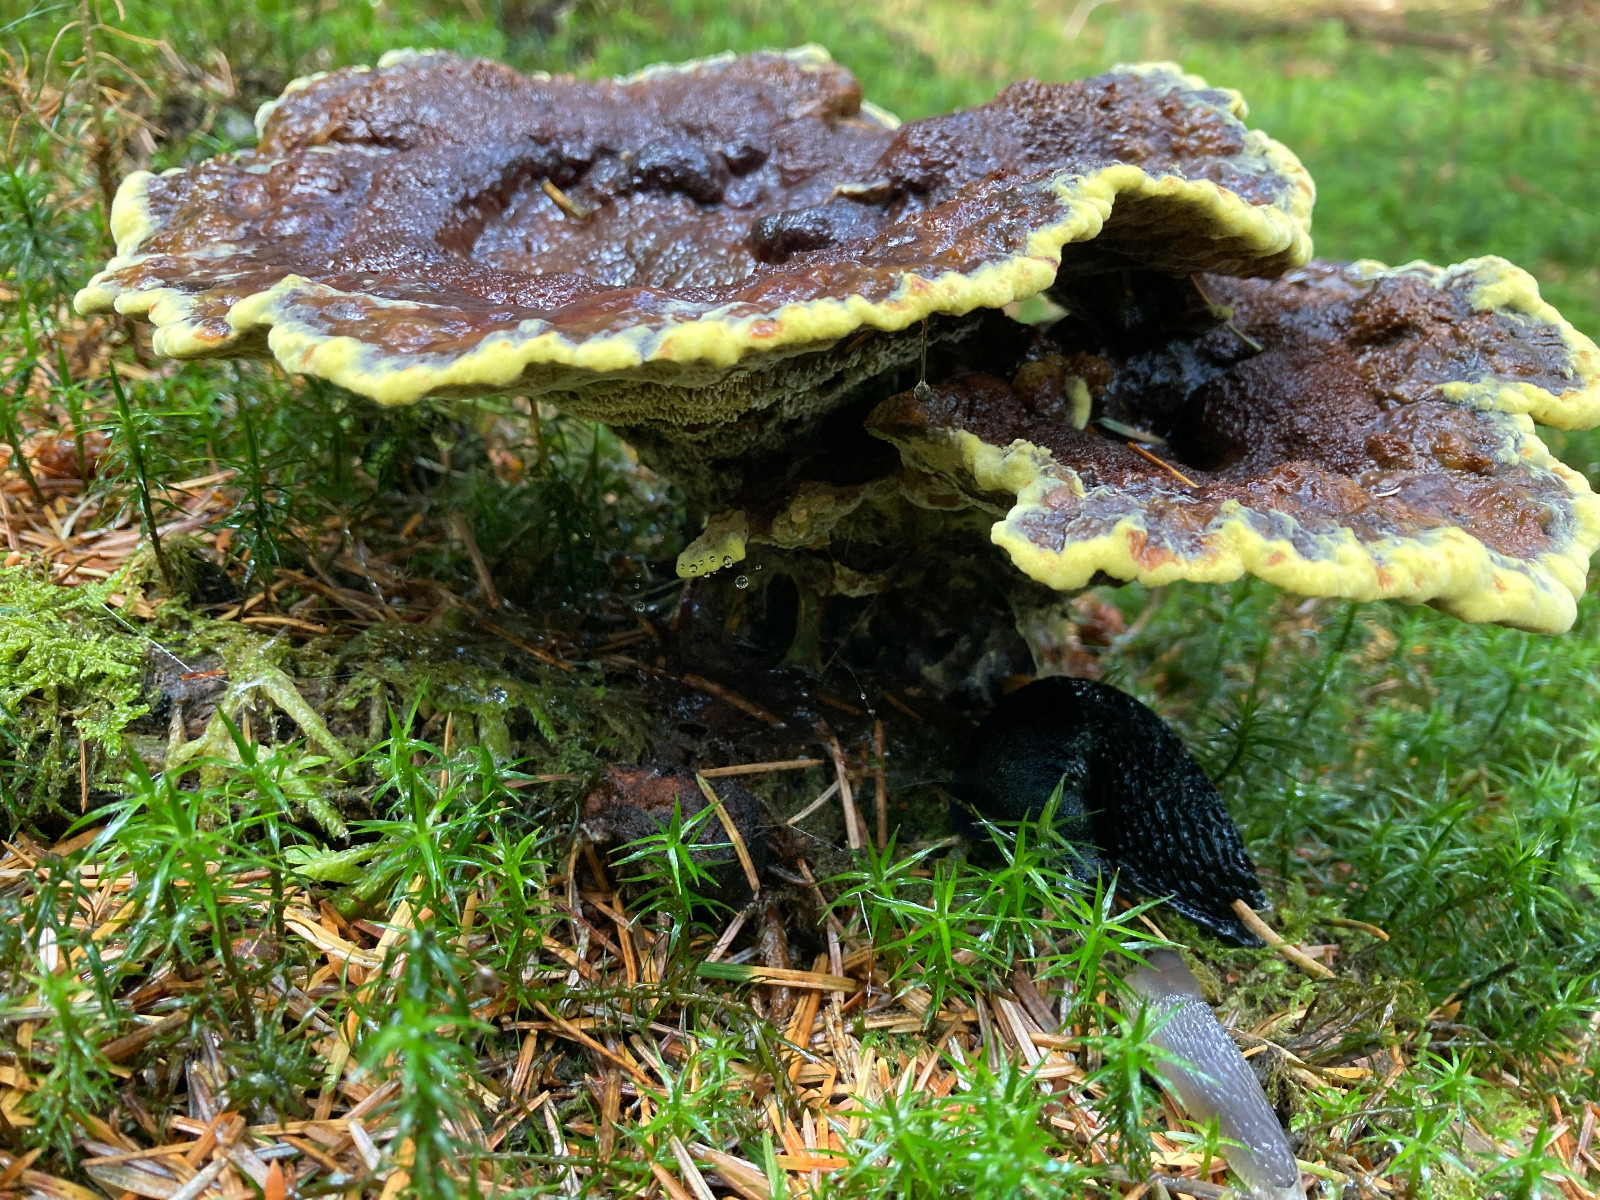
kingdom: Fungi
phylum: Basidiomycota
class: Agaricomycetes
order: Polyporales
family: Laetiporaceae
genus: Phaeolus
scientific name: Phaeolus schweinitzii
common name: brunporesvamp
